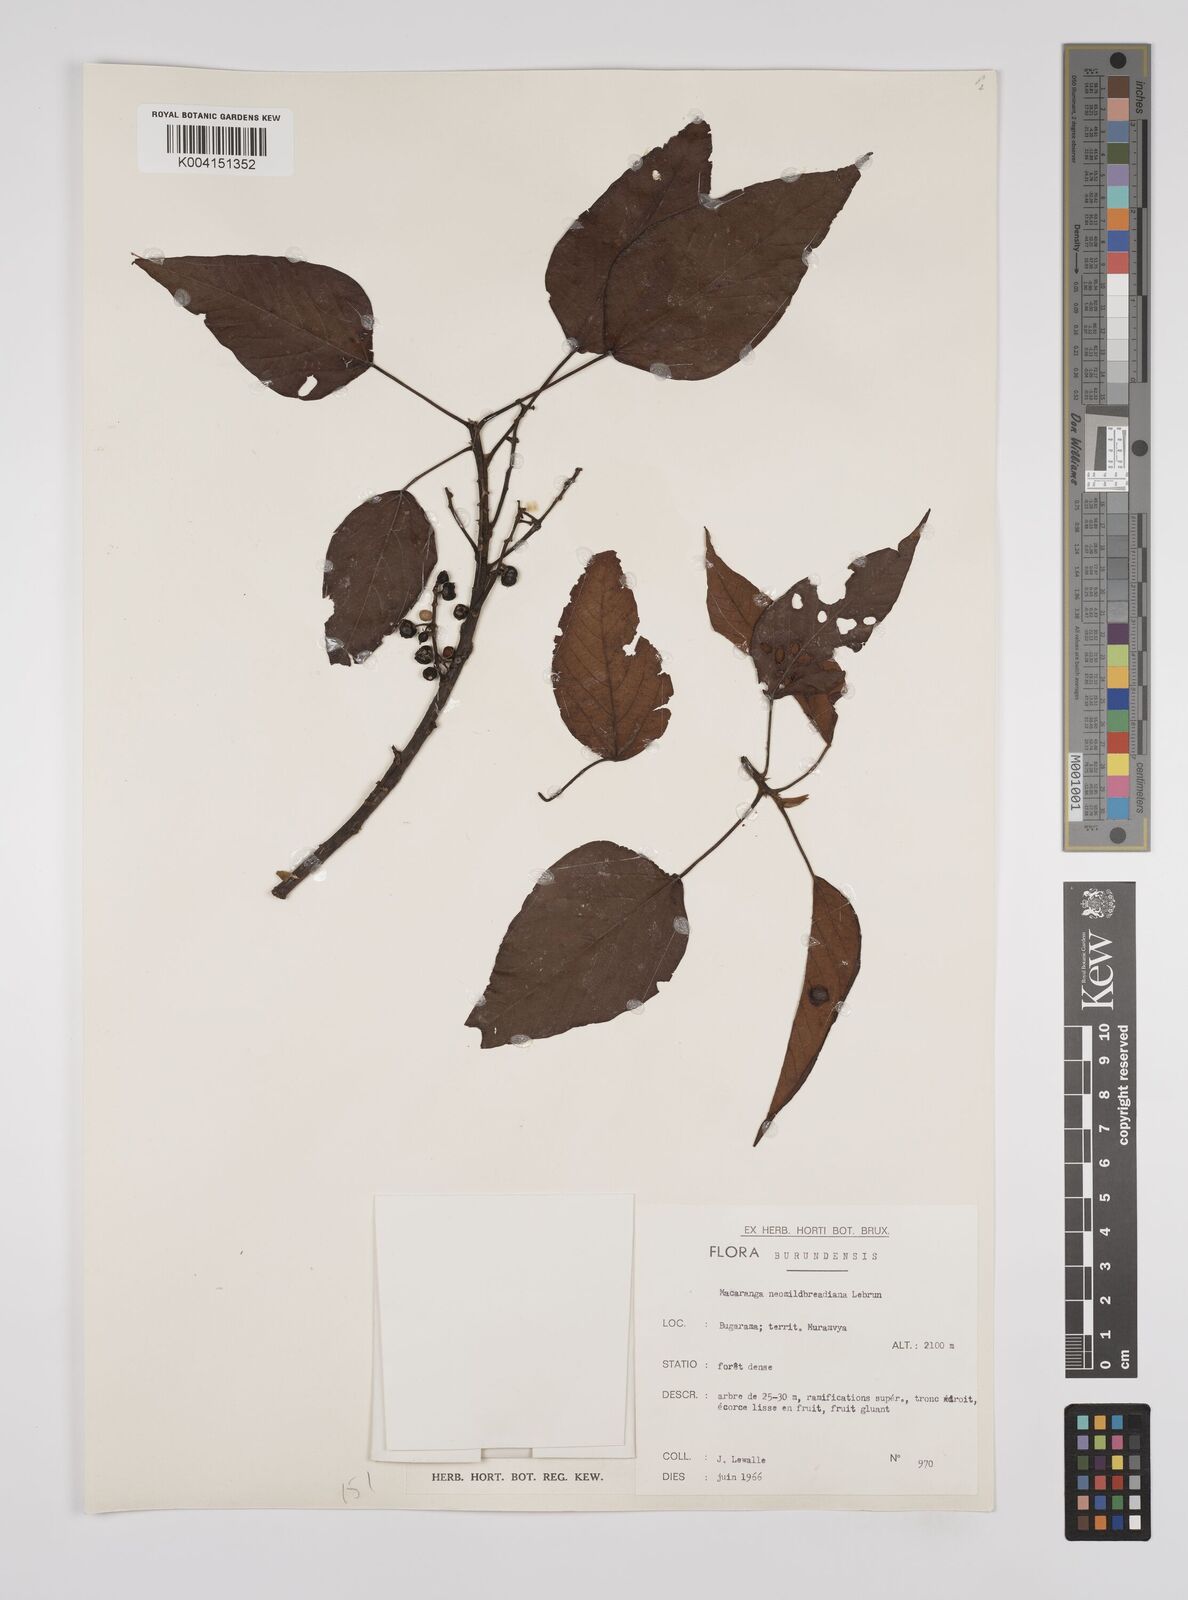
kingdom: Plantae
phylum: Tracheophyta
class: Magnoliopsida
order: Malpighiales
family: Euphorbiaceae
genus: Macaranga
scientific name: Macaranga kilimandscharica
